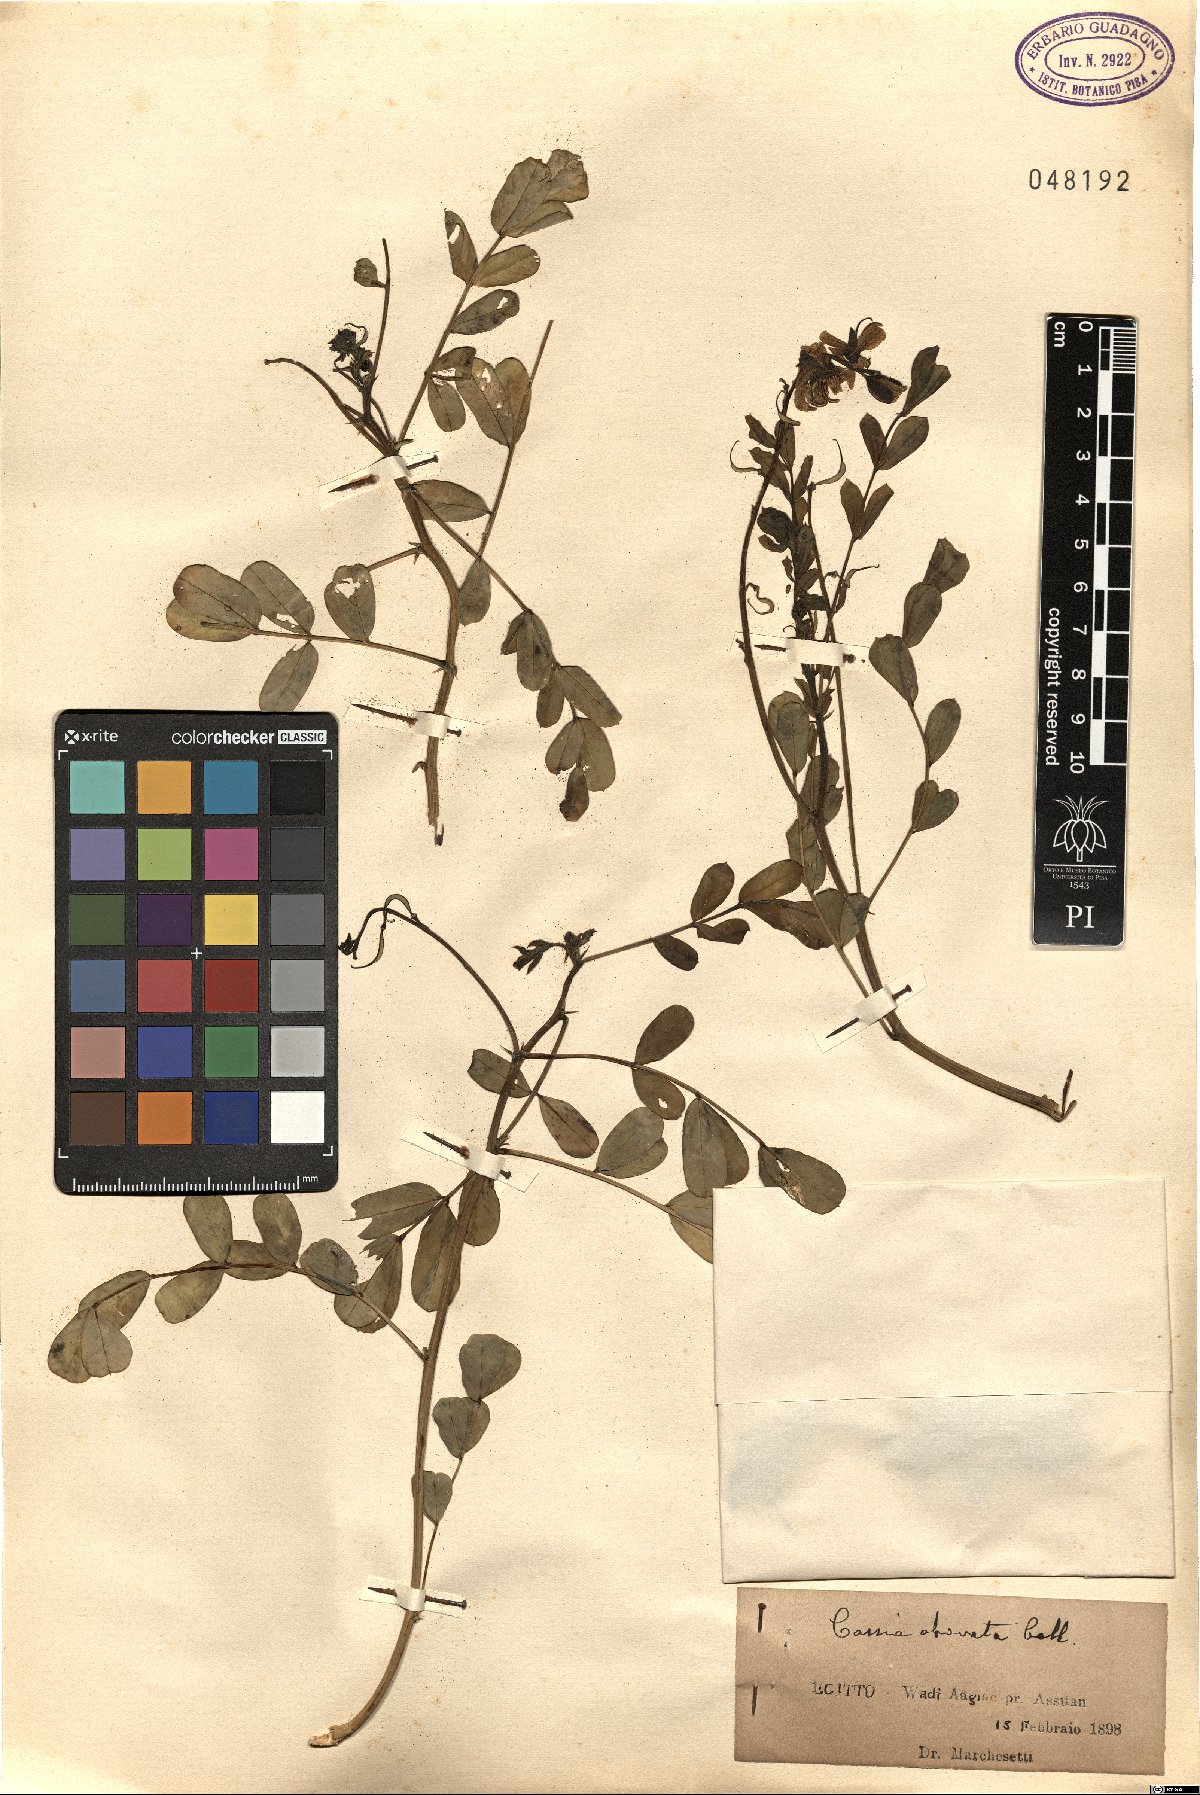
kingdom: Plantae
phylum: Tracheophyta
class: Magnoliopsida
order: Fabales
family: Fabaceae
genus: Senna
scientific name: Senna italica
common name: Port royal senna
